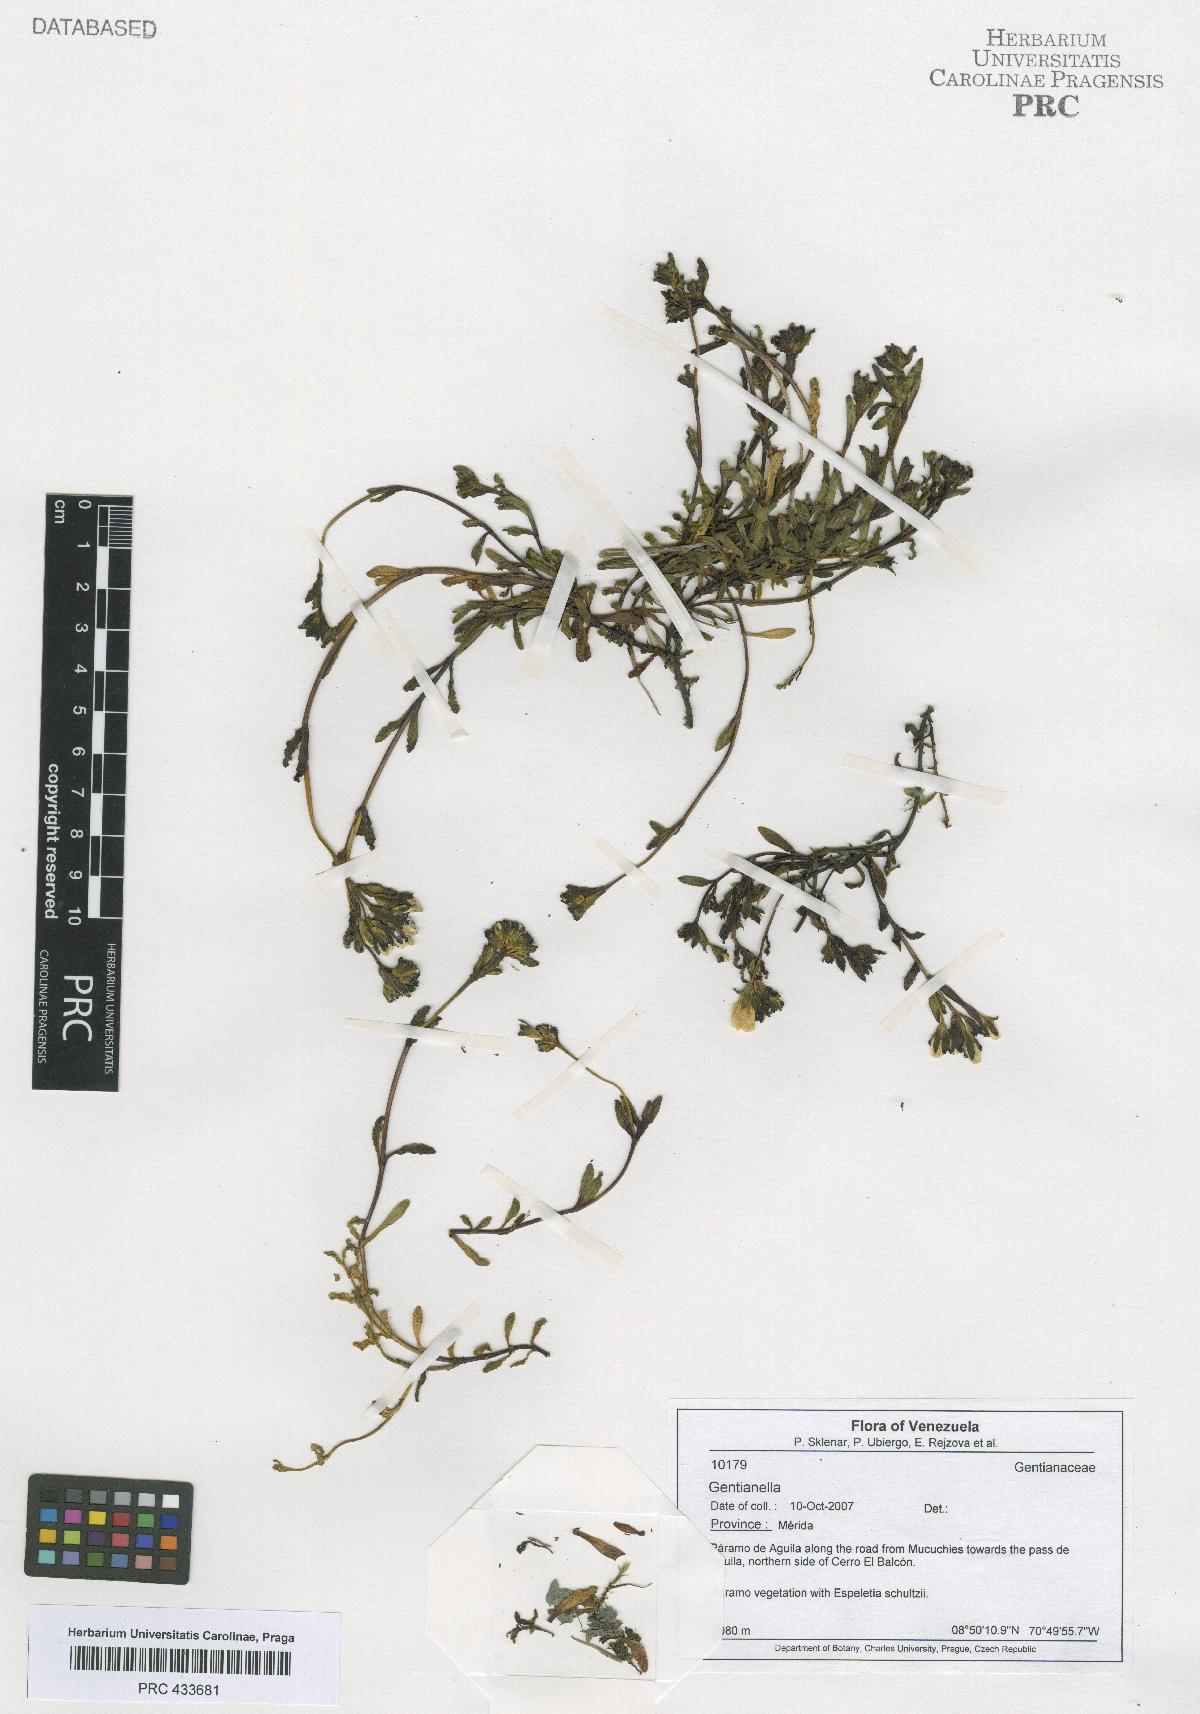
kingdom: Plantae
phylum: Tracheophyta
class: Magnoliopsida
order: Gentianales
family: Gentianaceae
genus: Gentianella
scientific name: Gentianella
